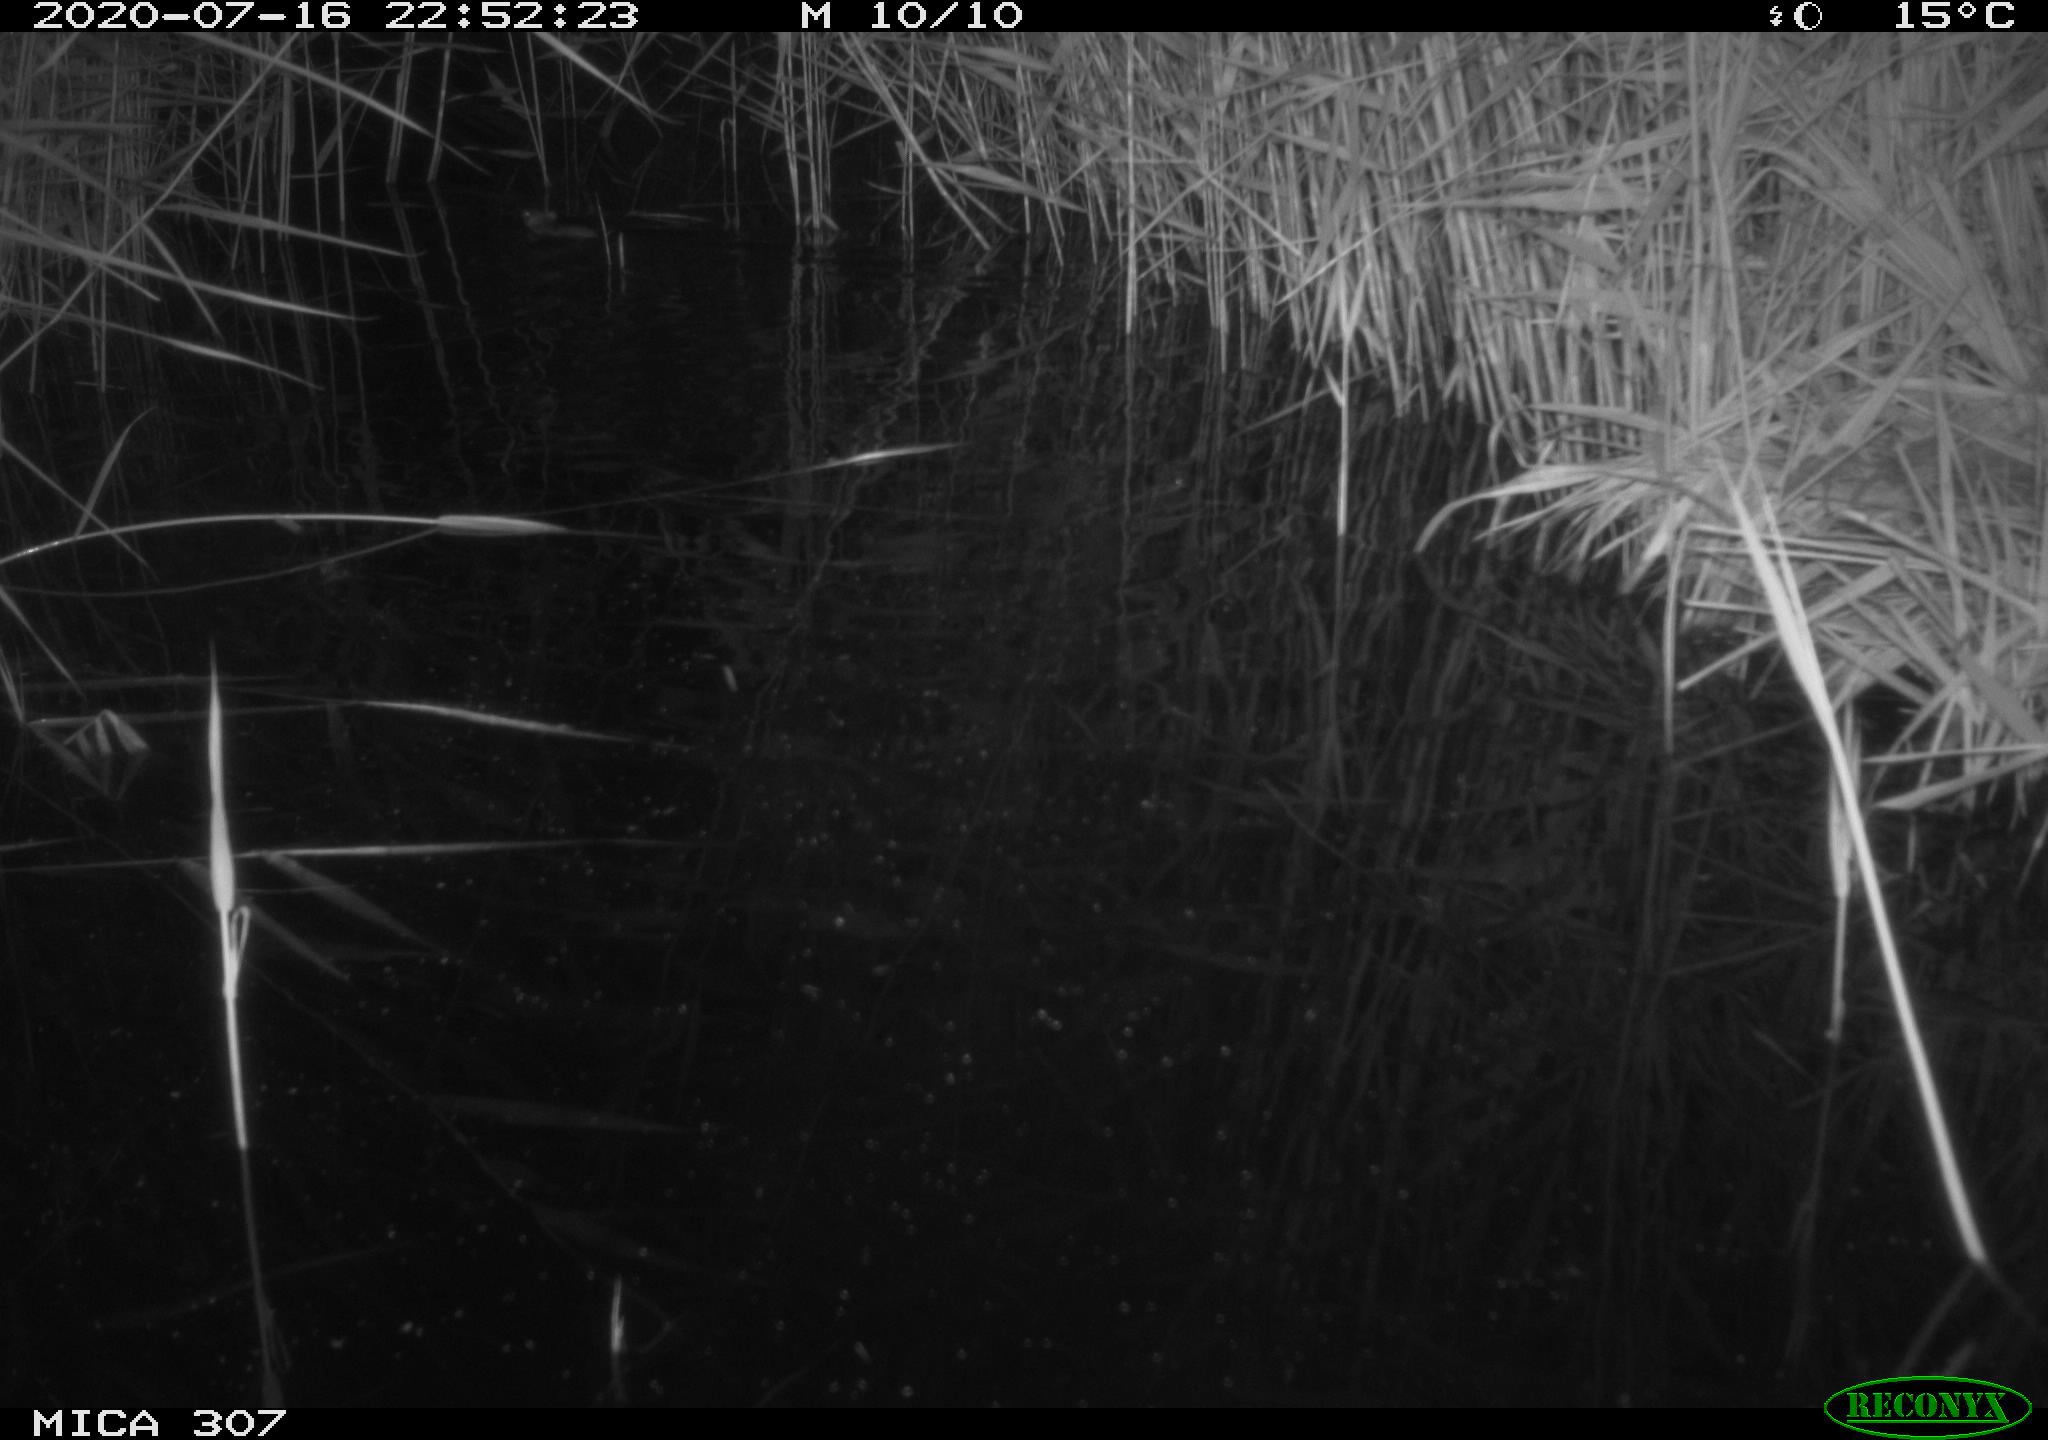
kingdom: Animalia
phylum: Chordata
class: Mammalia
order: Rodentia
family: Muridae
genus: Rattus
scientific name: Rattus norvegicus
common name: Brown rat
